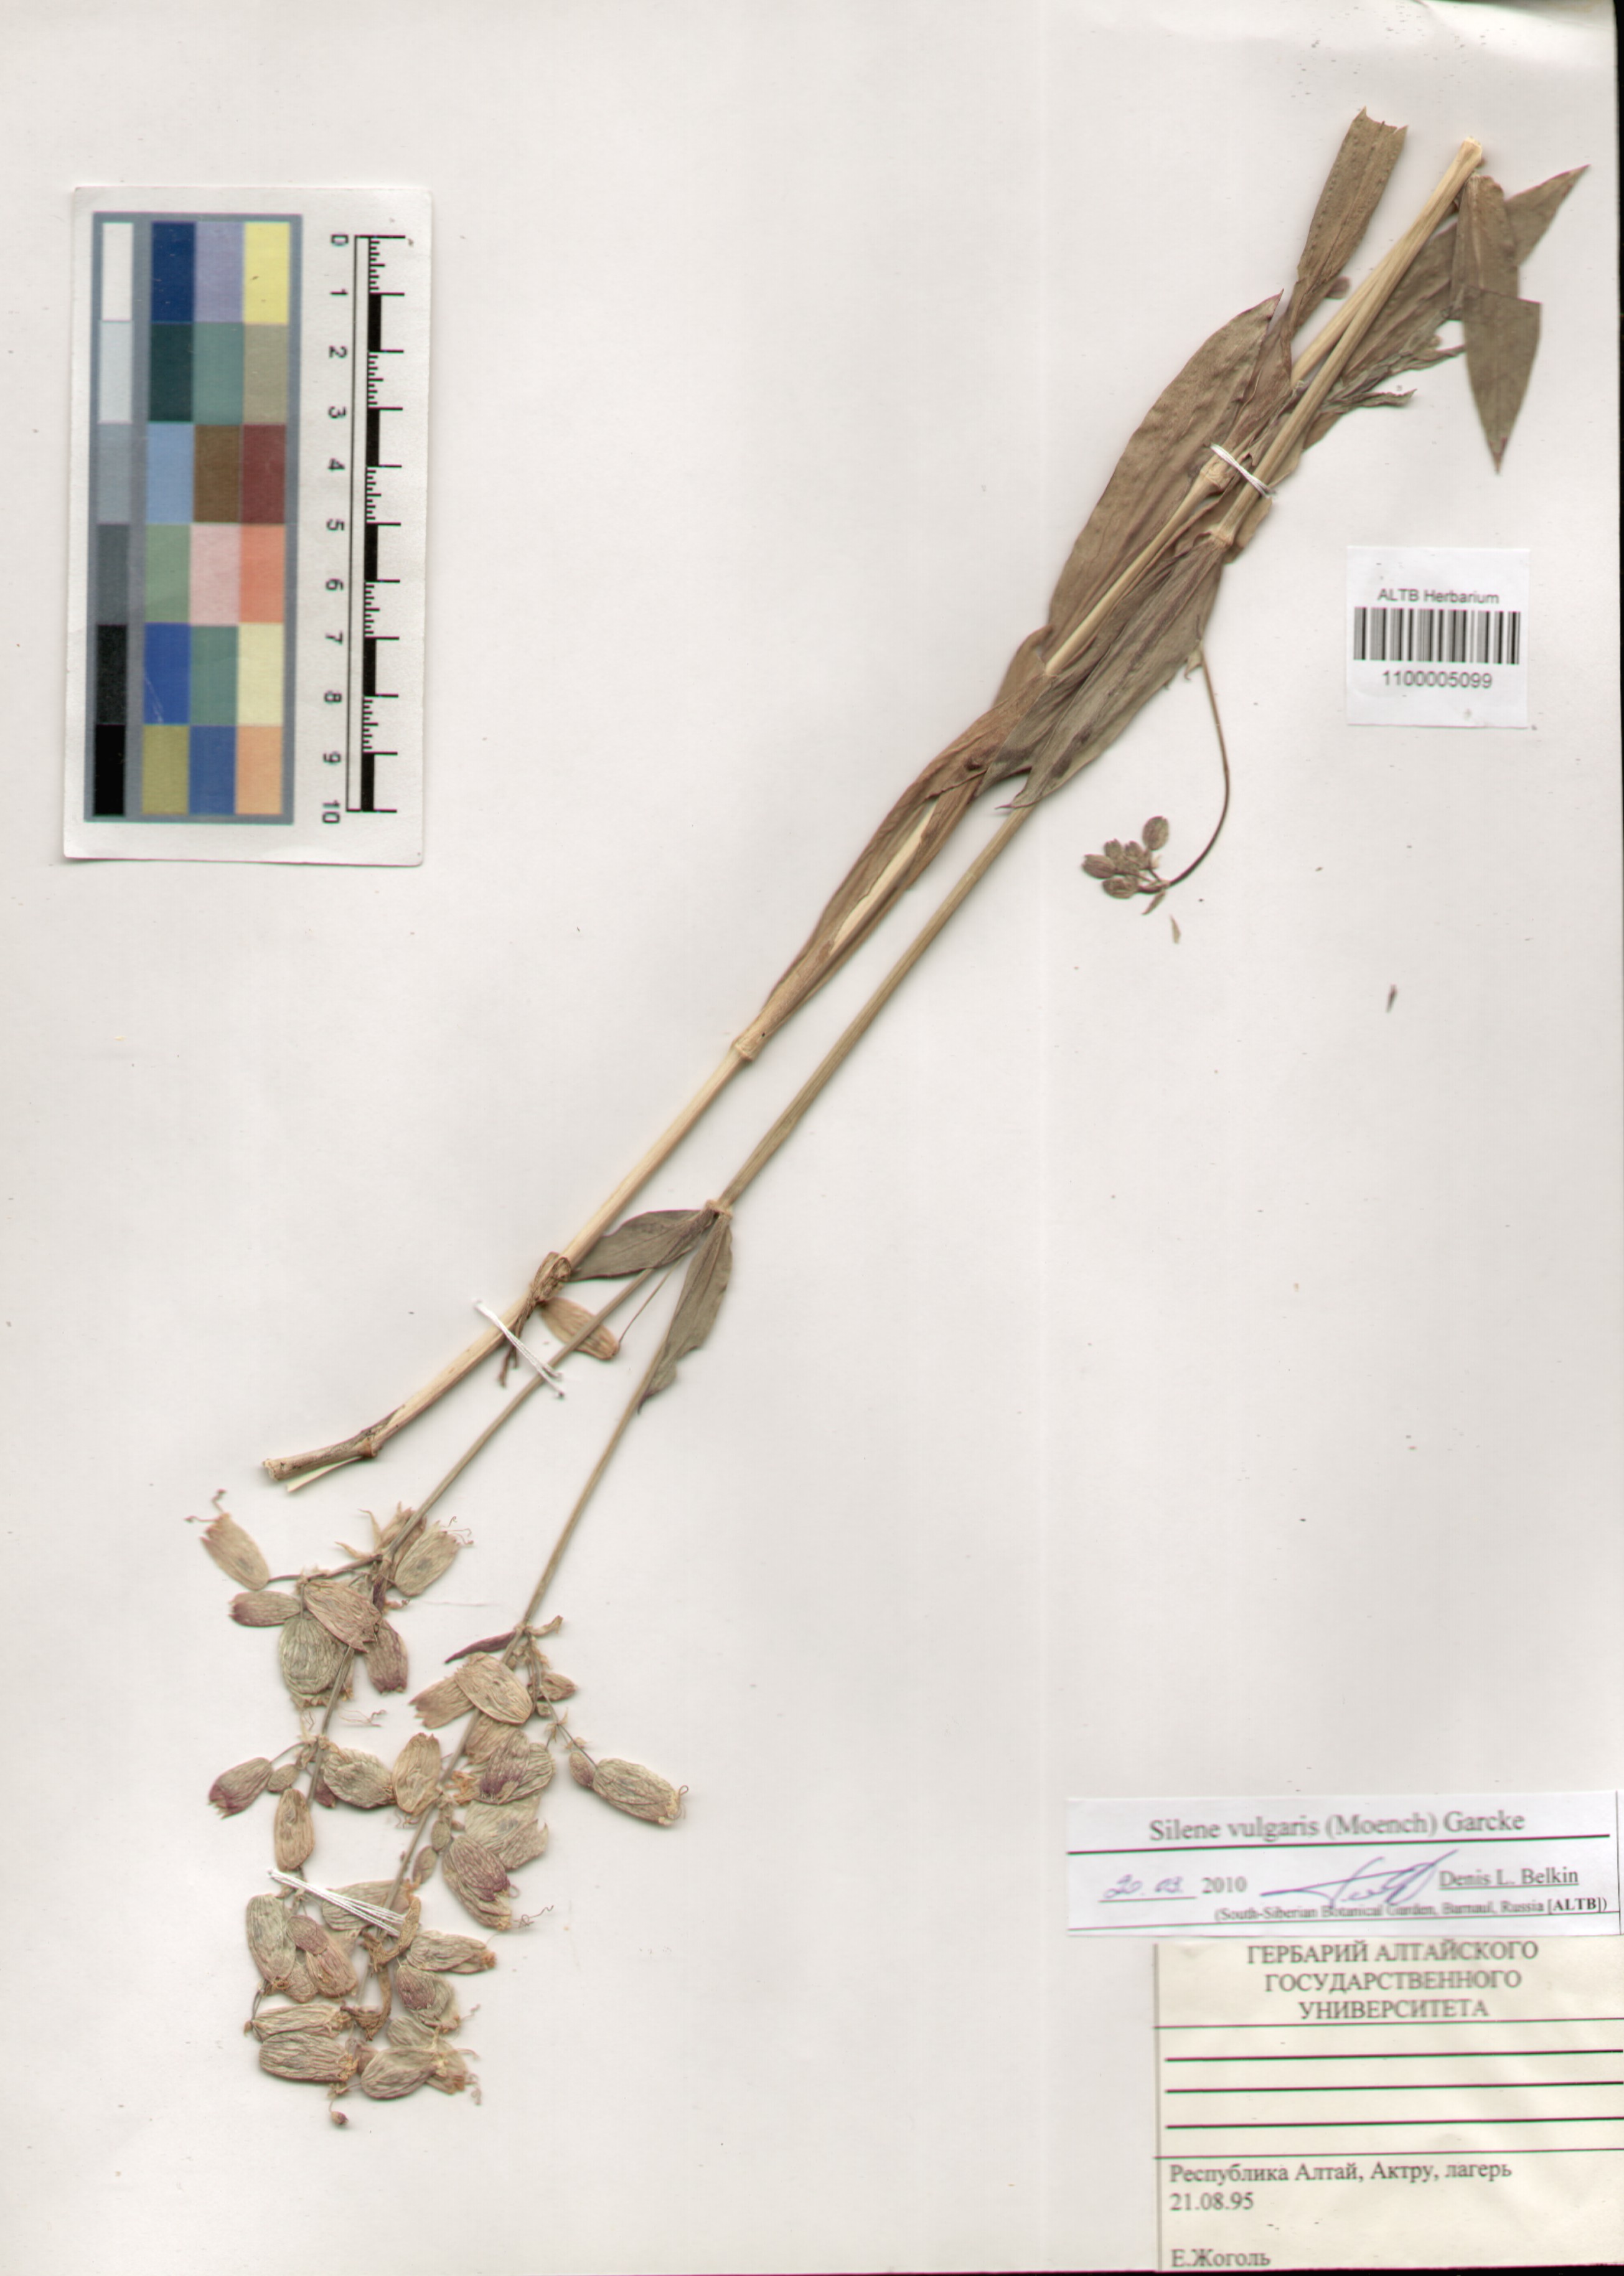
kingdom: Plantae
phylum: Tracheophyta
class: Magnoliopsida
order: Caryophyllales
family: Caryophyllaceae
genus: Silene
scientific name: Silene vulgaris
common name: Bladder campion
